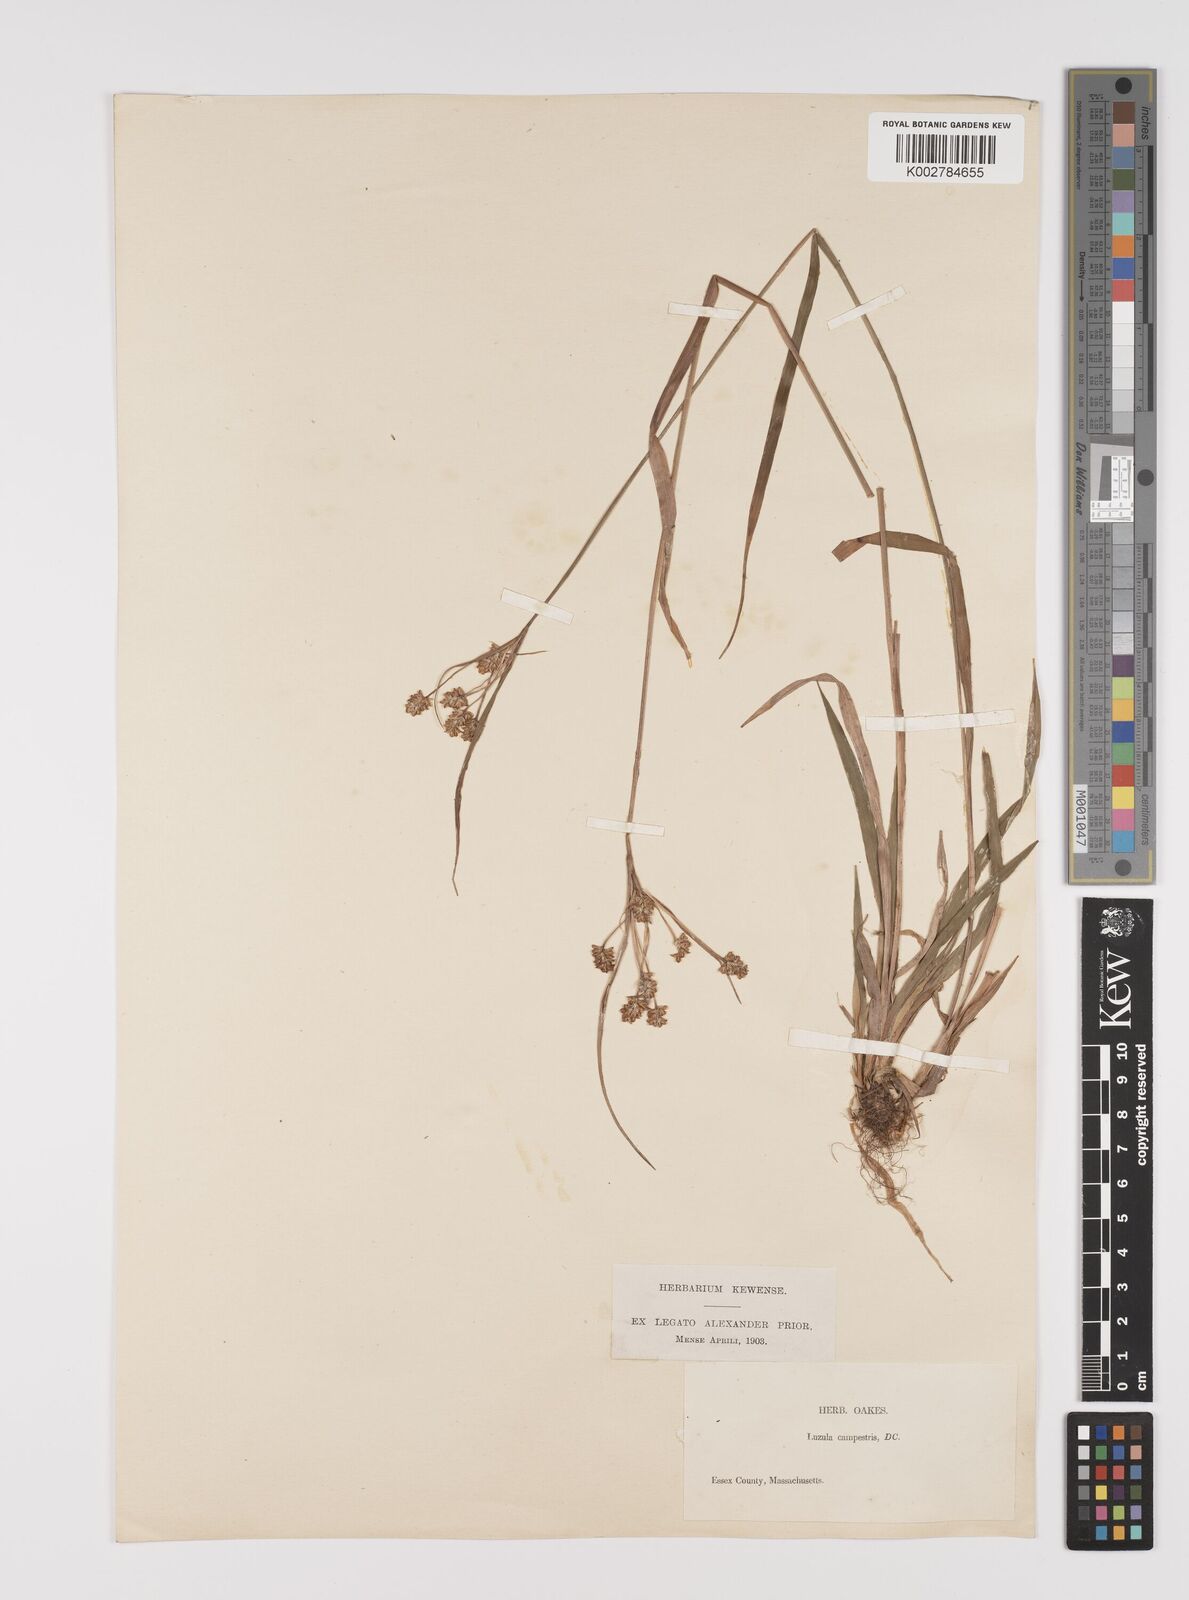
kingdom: Plantae
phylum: Tracheophyta
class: Liliopsida
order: Poales
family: Juncaceae
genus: Luzula
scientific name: Luzula campestris
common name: Field wood-rush
